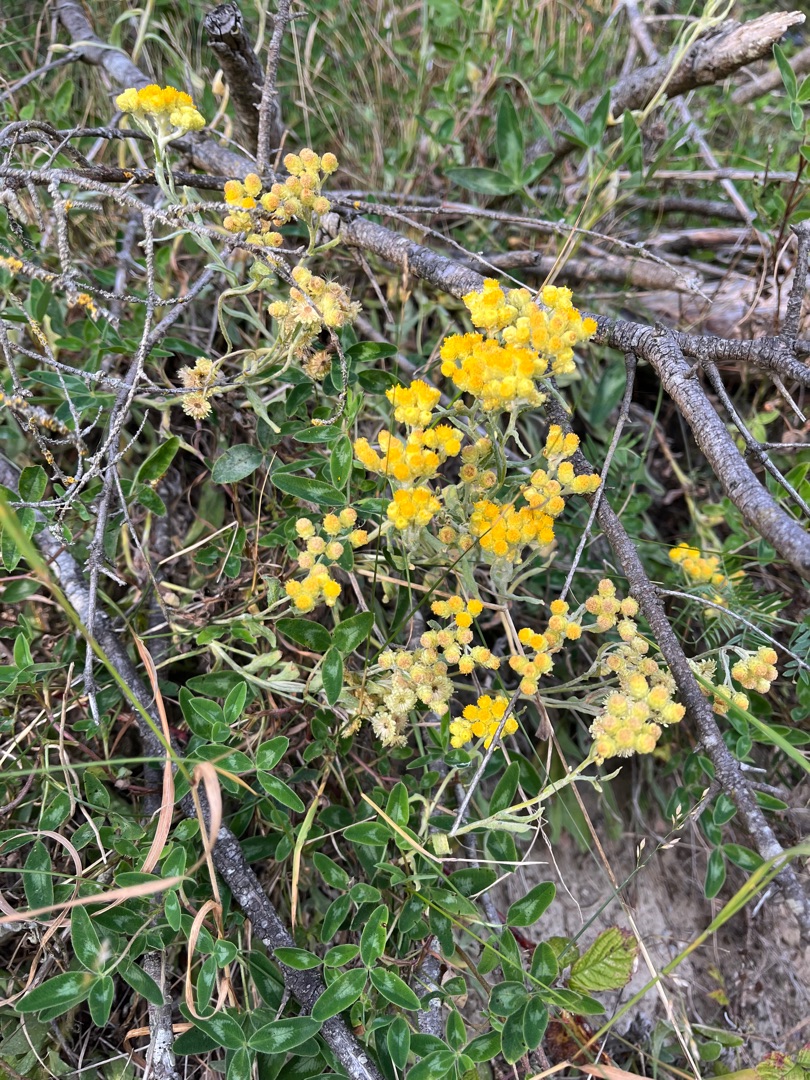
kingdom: Plantae
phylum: Tracheophyta
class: Magnoliopsida
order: Asterales
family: Asteraceae
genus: Helichrysum
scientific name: Helichrysum arenarium
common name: Gul evighedsblomst
